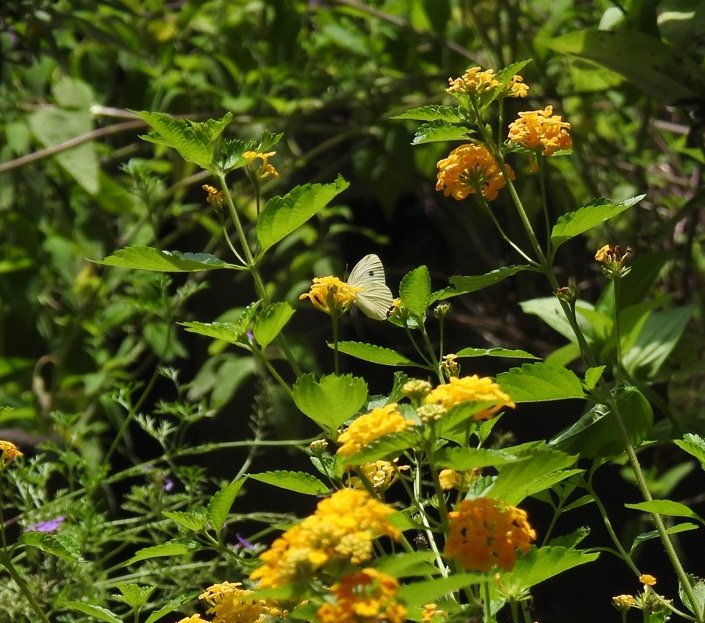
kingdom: Animalia
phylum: Arthropoda
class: Insecta
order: Lepidoptera
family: Pieridae
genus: Pieris
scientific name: Pieris rapae
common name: Cabbage White
